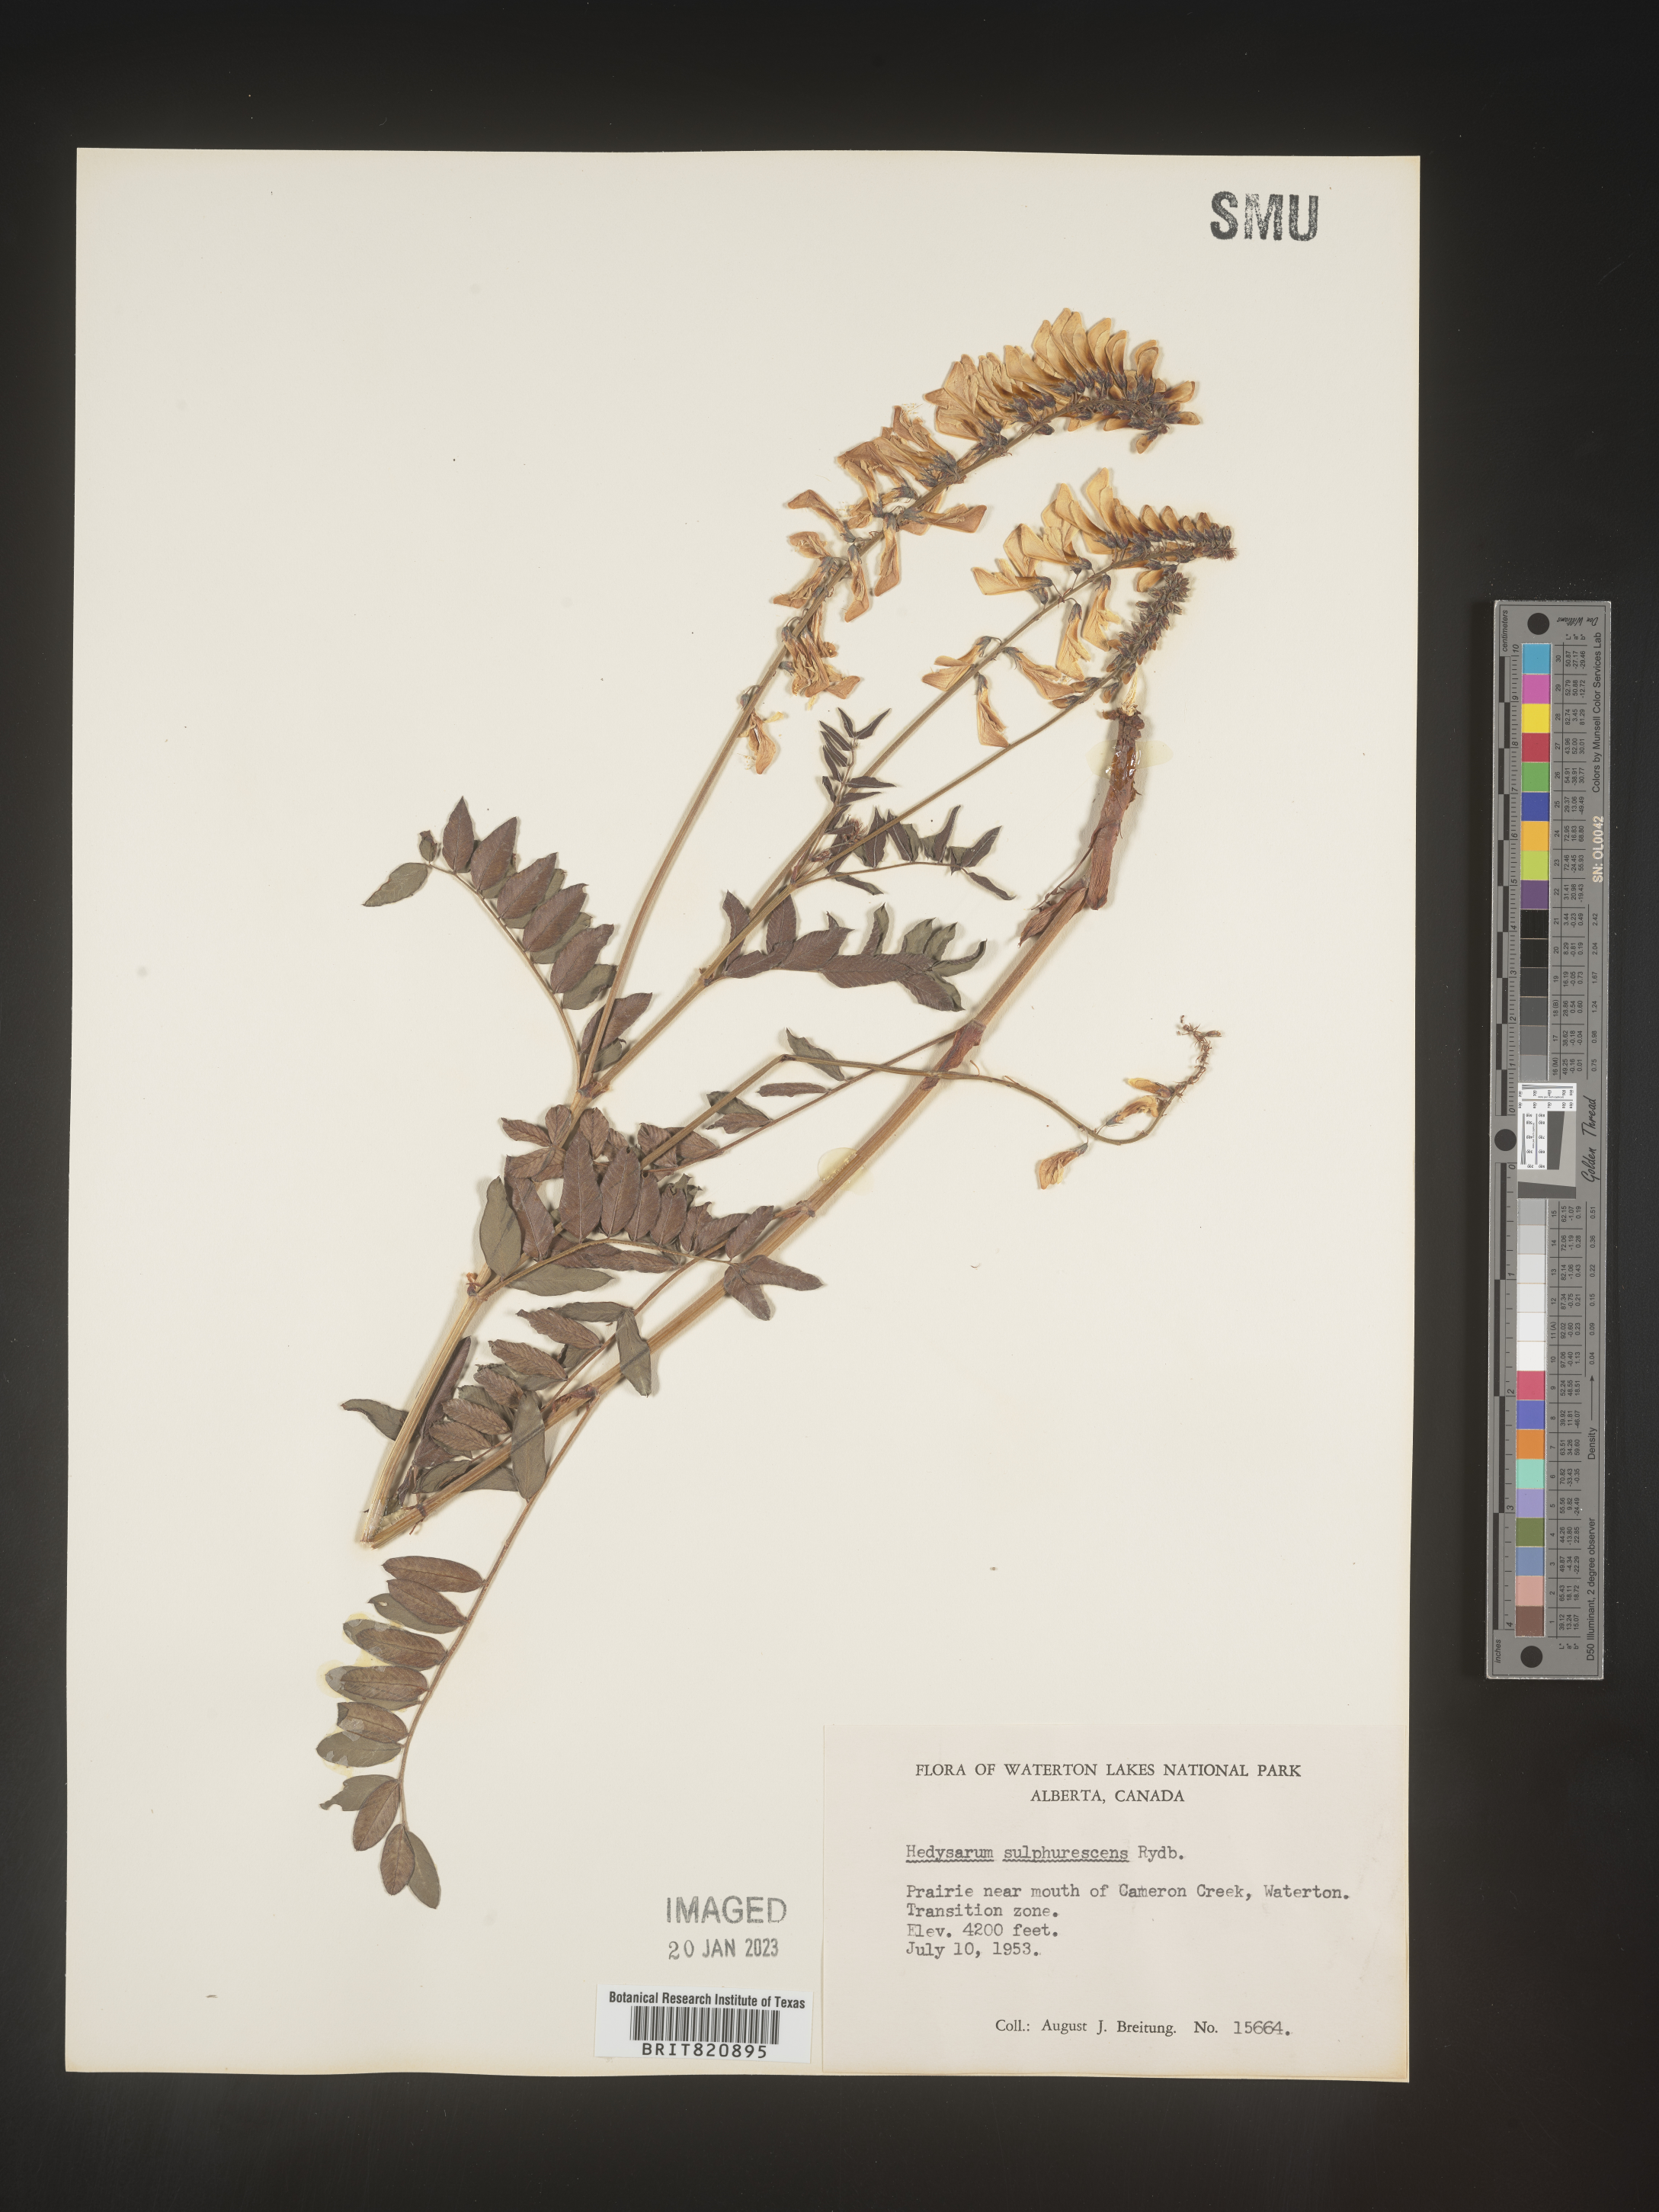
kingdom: Plantae
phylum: Tracheophyta
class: Magnoliopsida
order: Fabales
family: Fabaceae
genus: Hedysarum
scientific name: Hedysarum sulphurescens
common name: Sulphur hedysarum
